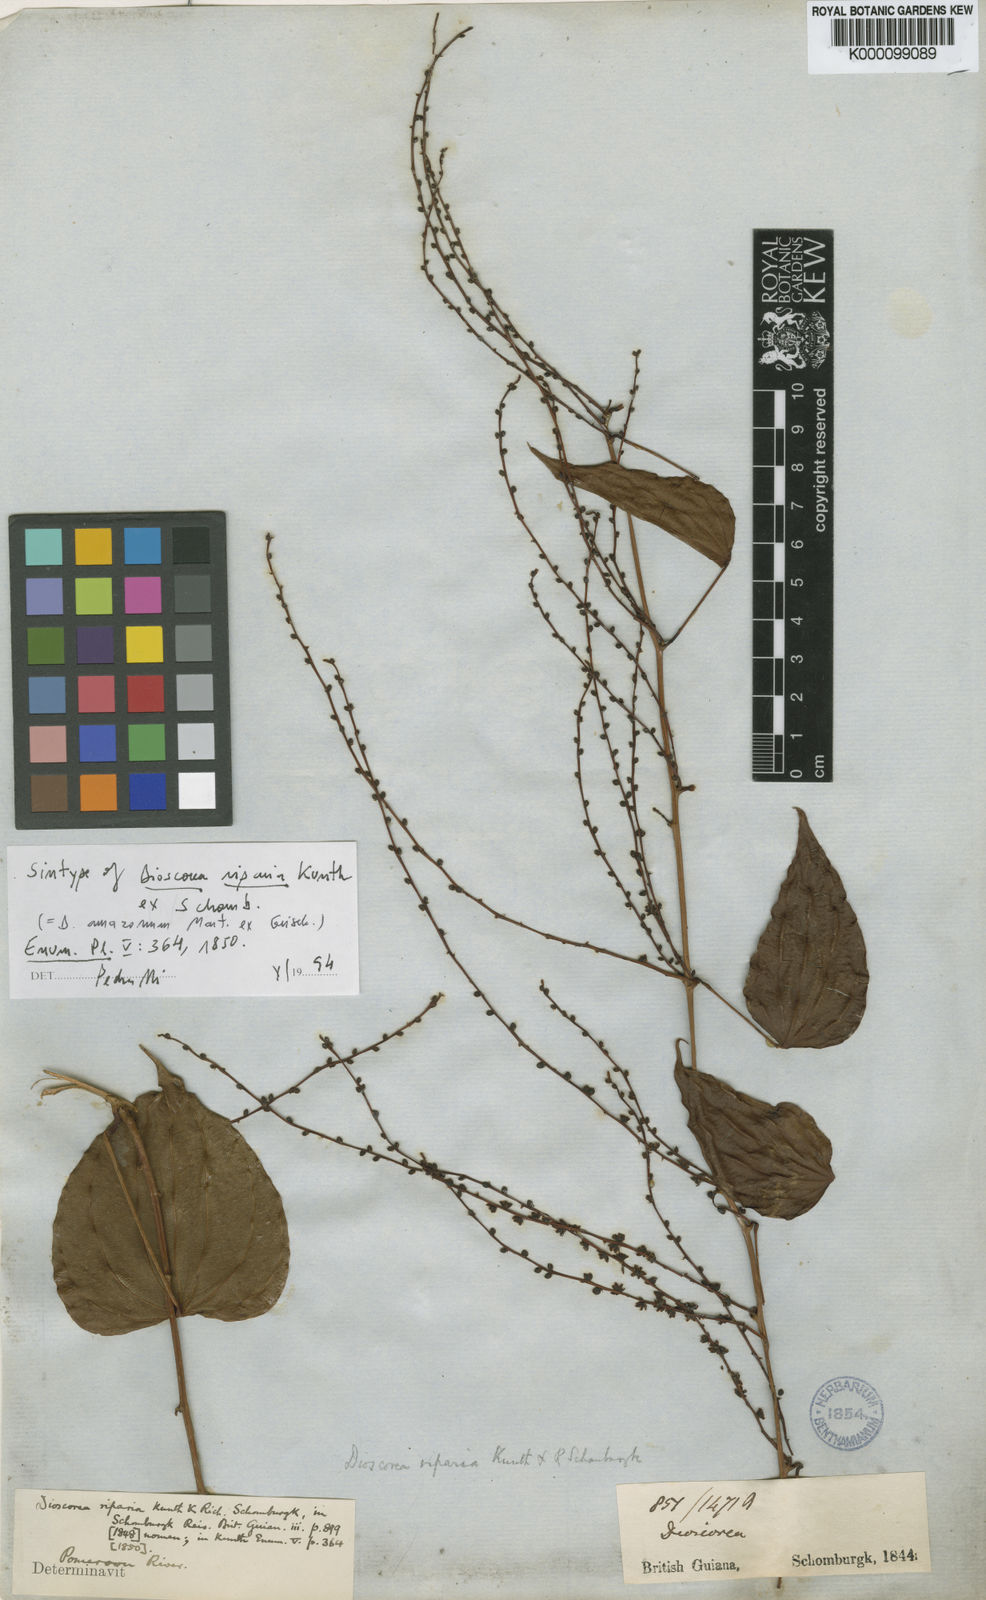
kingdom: Plantae
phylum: Tracheophyta
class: Liliopsida
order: Dioscoreales
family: Dioscoreaceae
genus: Dioscorea
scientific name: Dioscorea chondrocarpa
